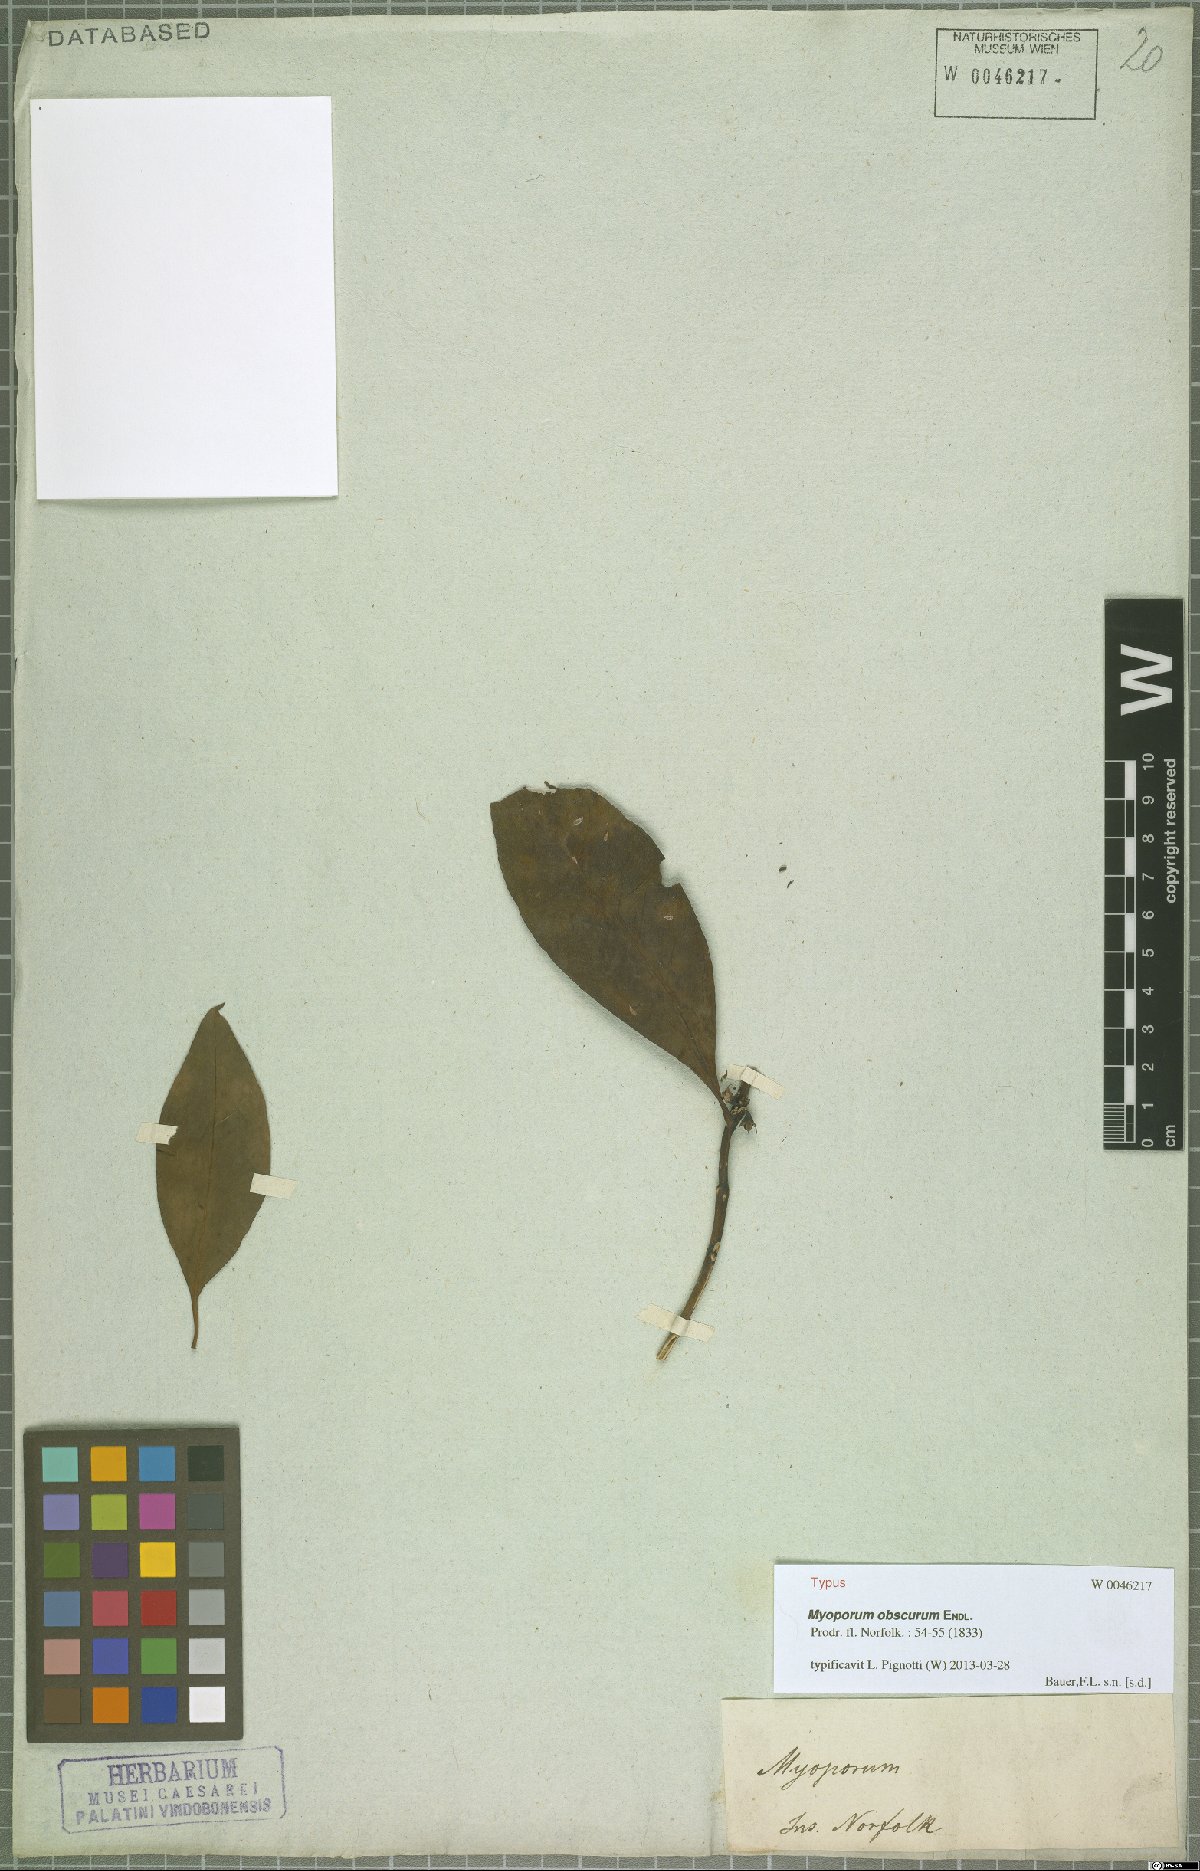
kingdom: Plantae
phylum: Tracheophyta
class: Magnoliopsida
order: Lamiales
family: Scrophulariaceae
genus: Myoporum
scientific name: Myoporum obscurum
